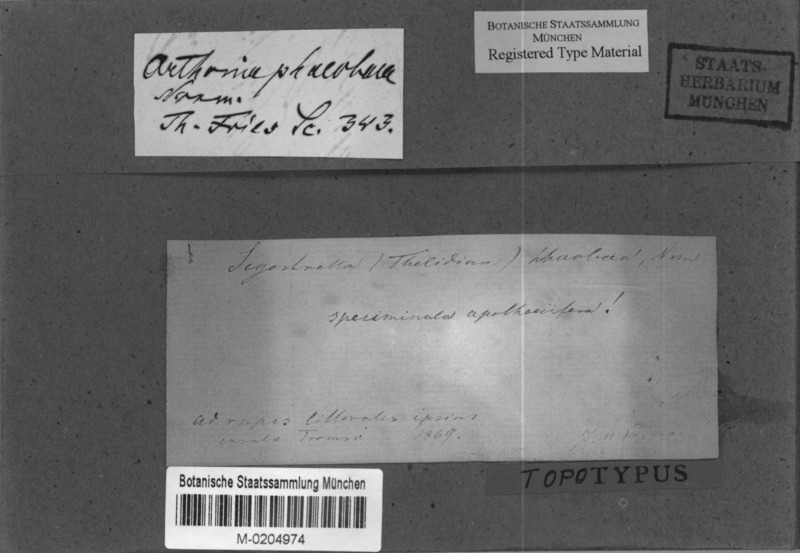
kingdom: Fungi
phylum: Ascomycota
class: Arthoniomycetes
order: Arthoniales
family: Arthoniaceae
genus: Arthonia
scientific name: Arthonia phaeobaea
